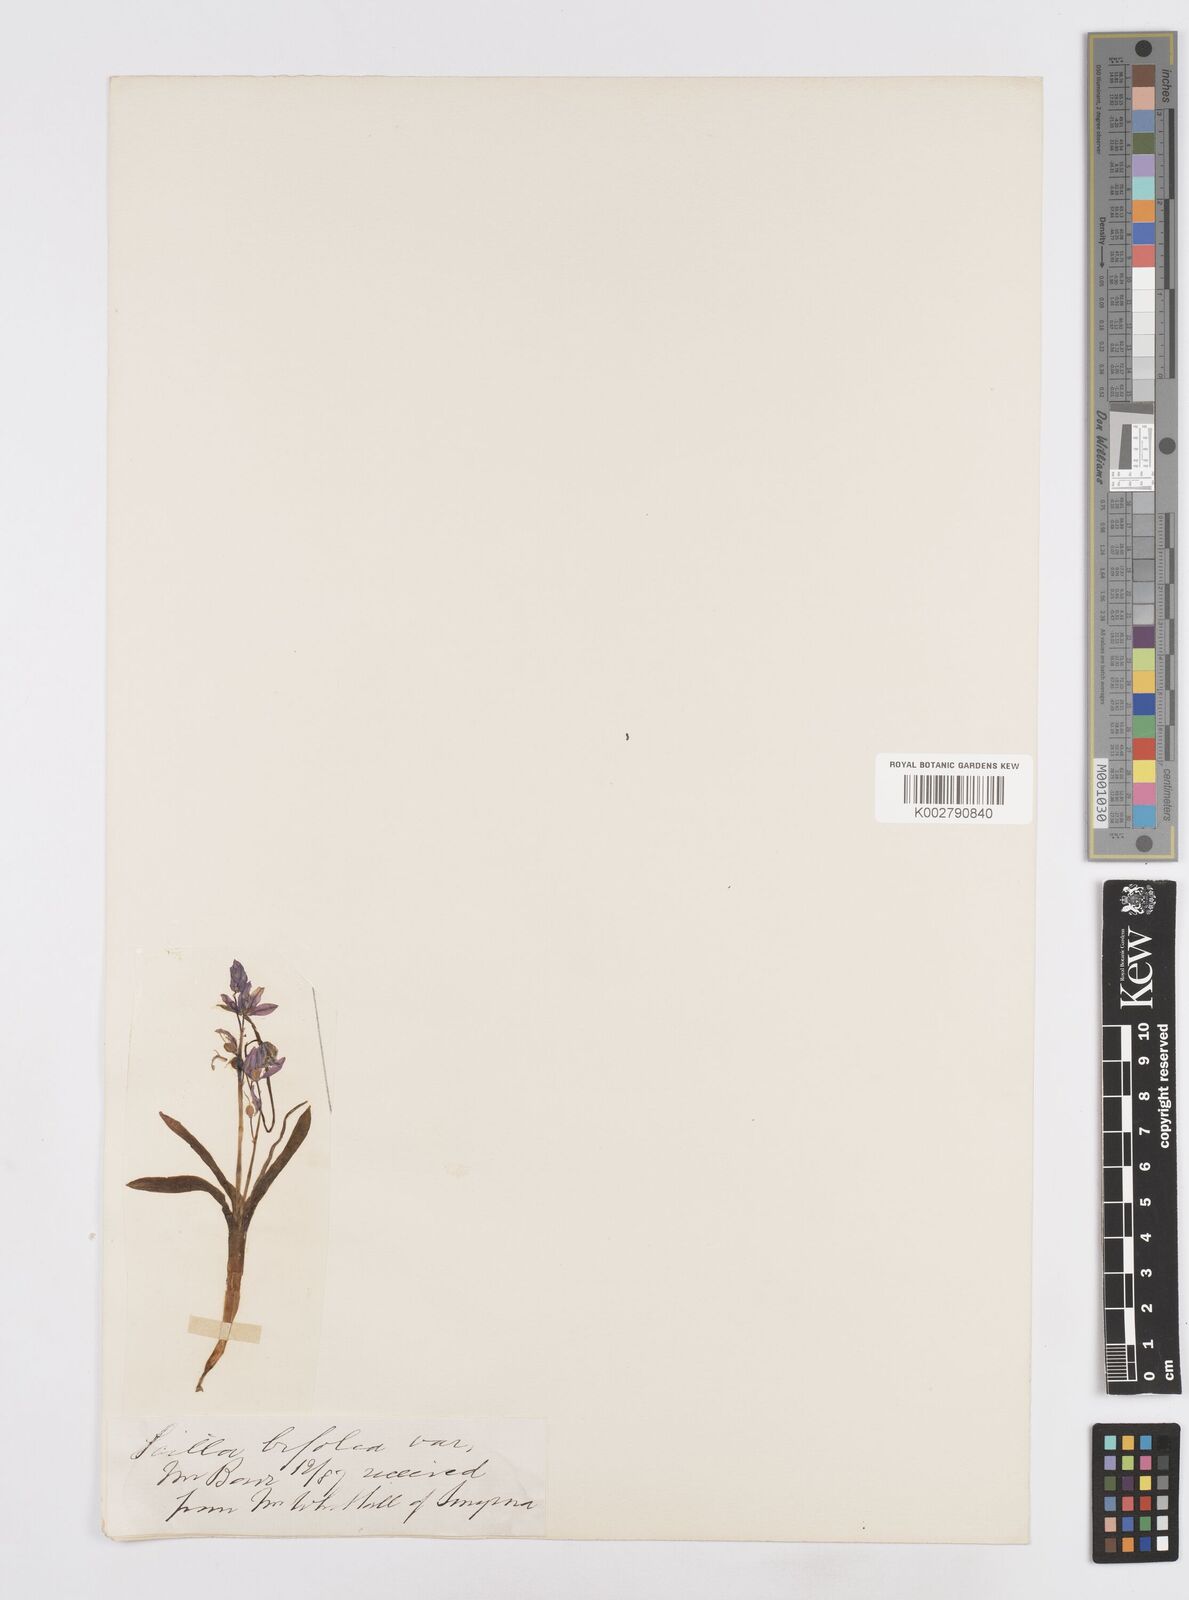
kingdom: Plantae
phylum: Tracheophyta
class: Liliopsida
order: Asparagales
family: Asparagaceae
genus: Scilla
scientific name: Scilla bifolia
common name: Alpine squill
